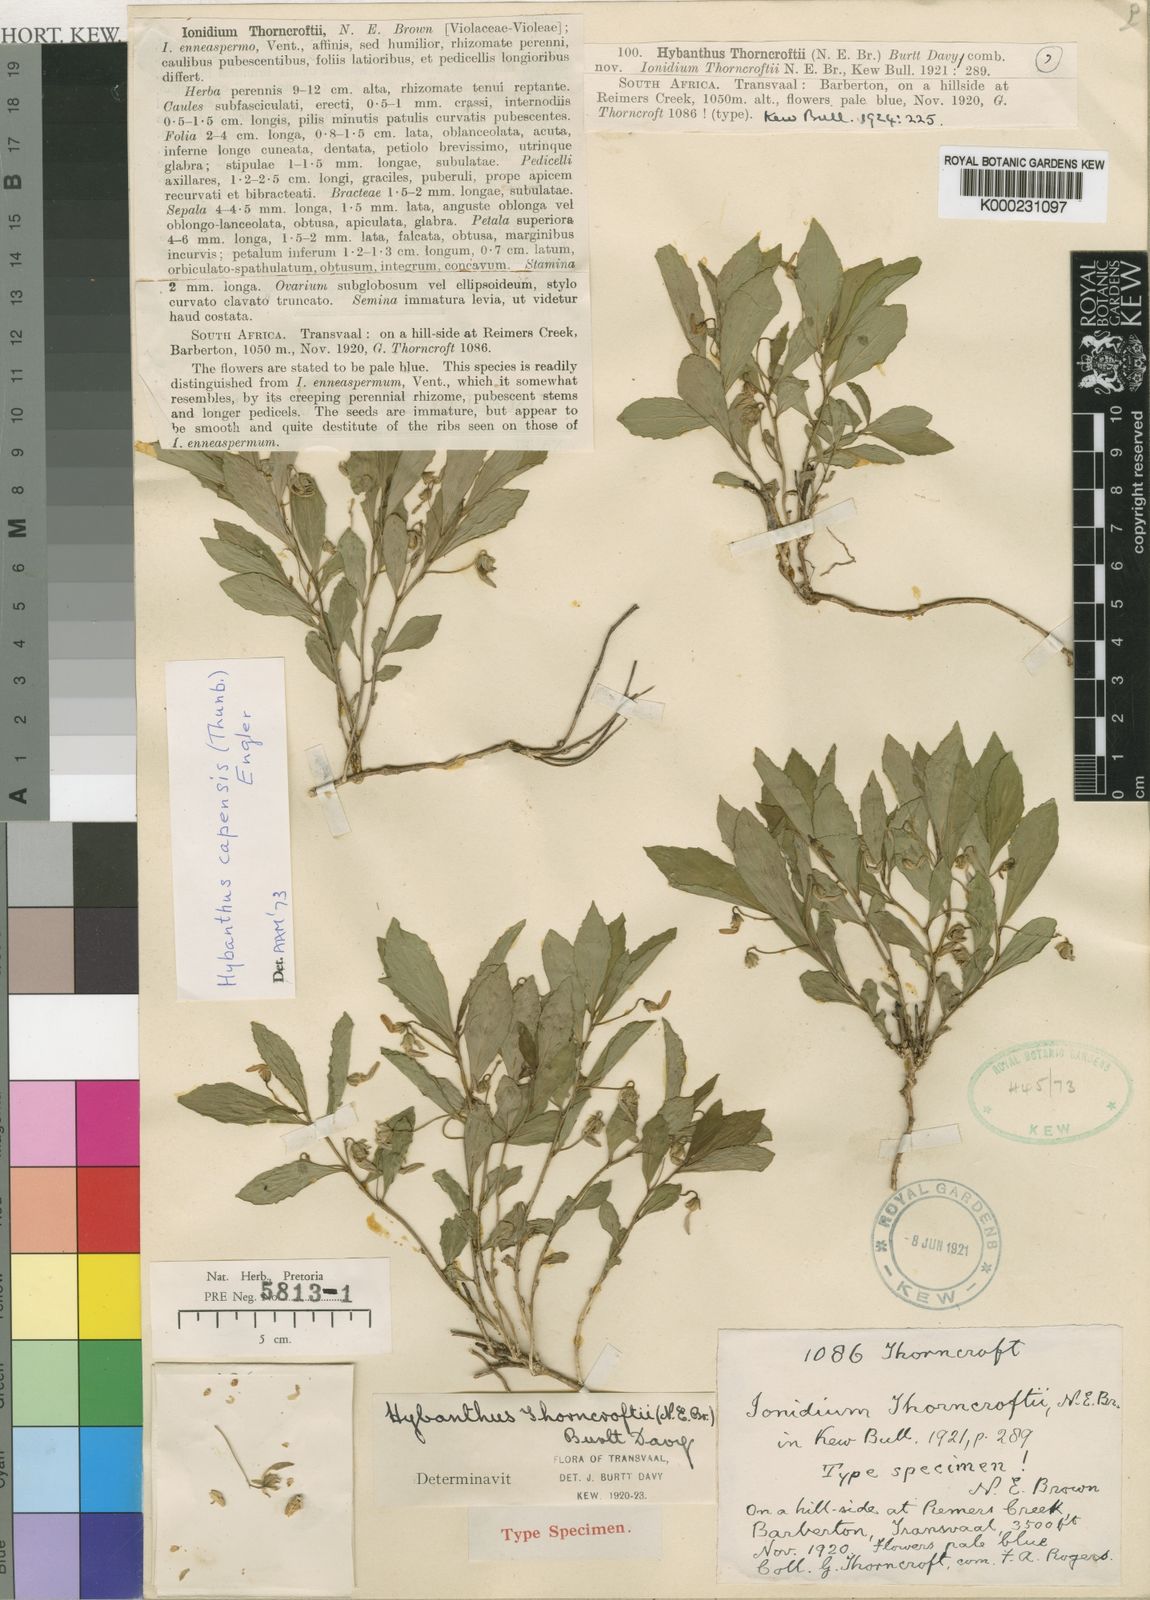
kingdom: Plantae
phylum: Tracheophyta
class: Magnoliopsida
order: Malpighiales
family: Violaceae
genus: Hybanthus
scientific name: Hybanthus Ionidium thorncroftii
